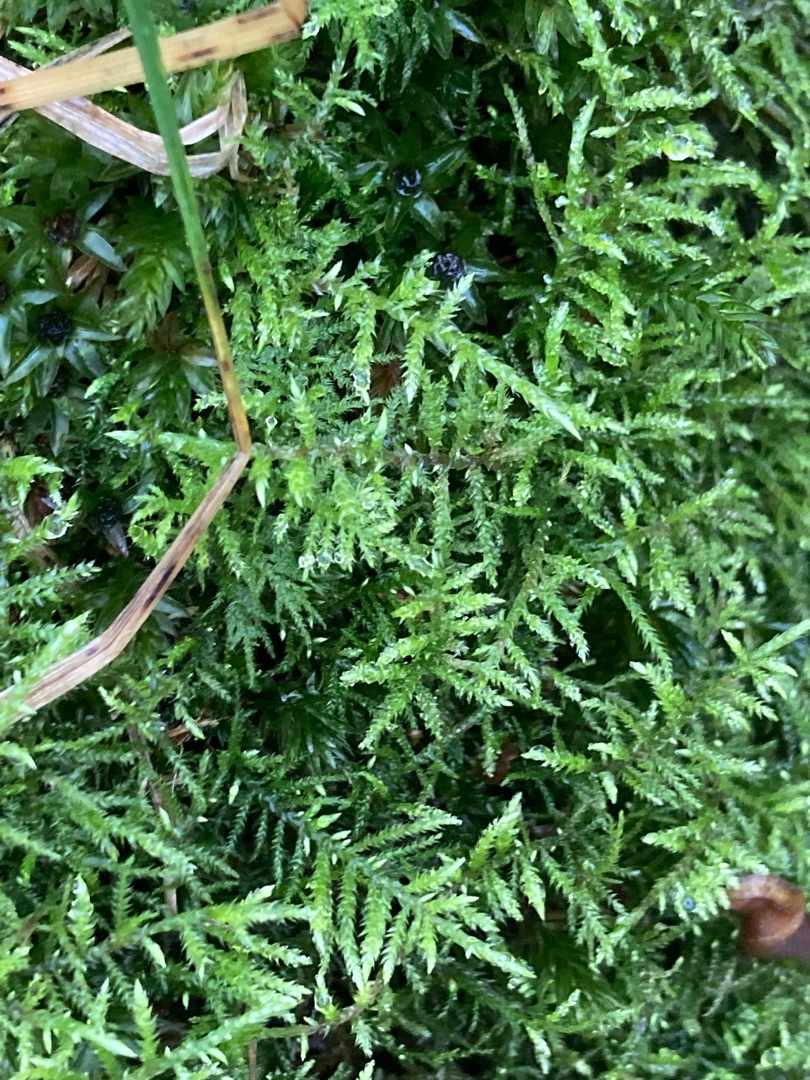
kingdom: Plantae
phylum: Bryophyta
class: Bryopsida
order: Hypnales
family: Brachytheciaceae
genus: Brachythecium
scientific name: Brachythecium rivulare
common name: Væld-kortkapsel
